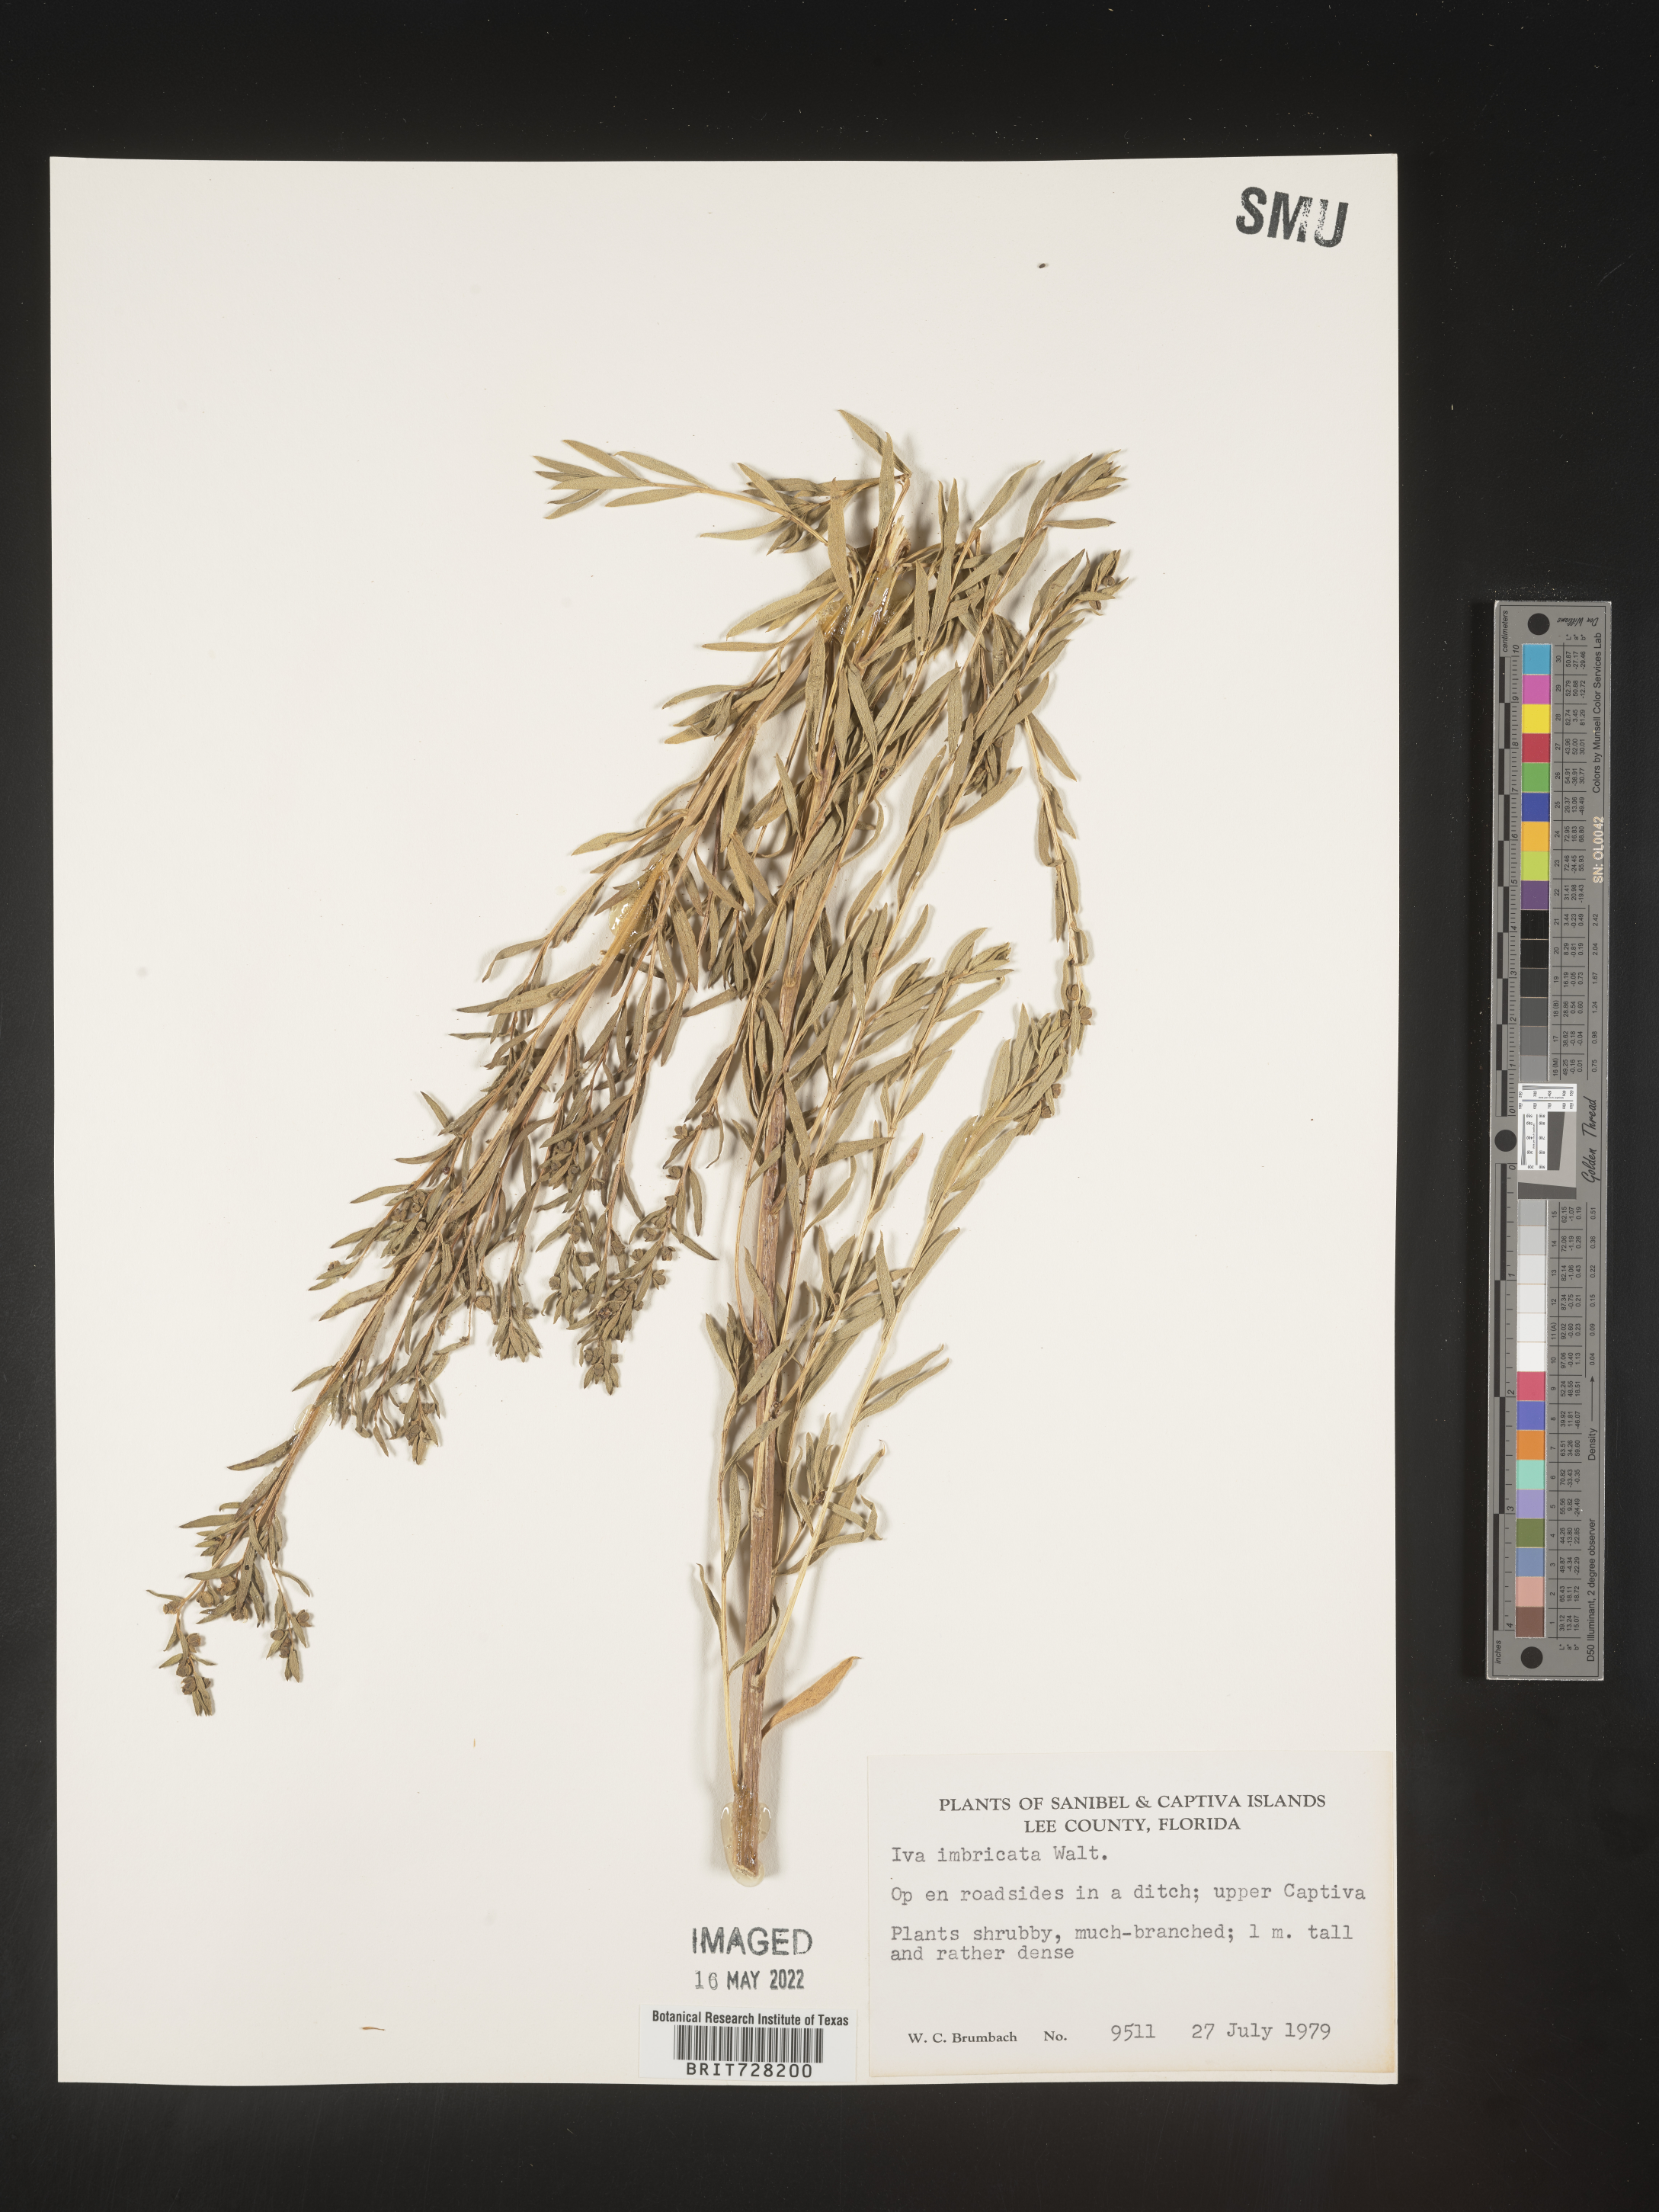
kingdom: Plantae
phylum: Tracheophyta
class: Magnoliopsida
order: Asterales
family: Asteraceae
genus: Iva
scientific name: Iva imbricata
